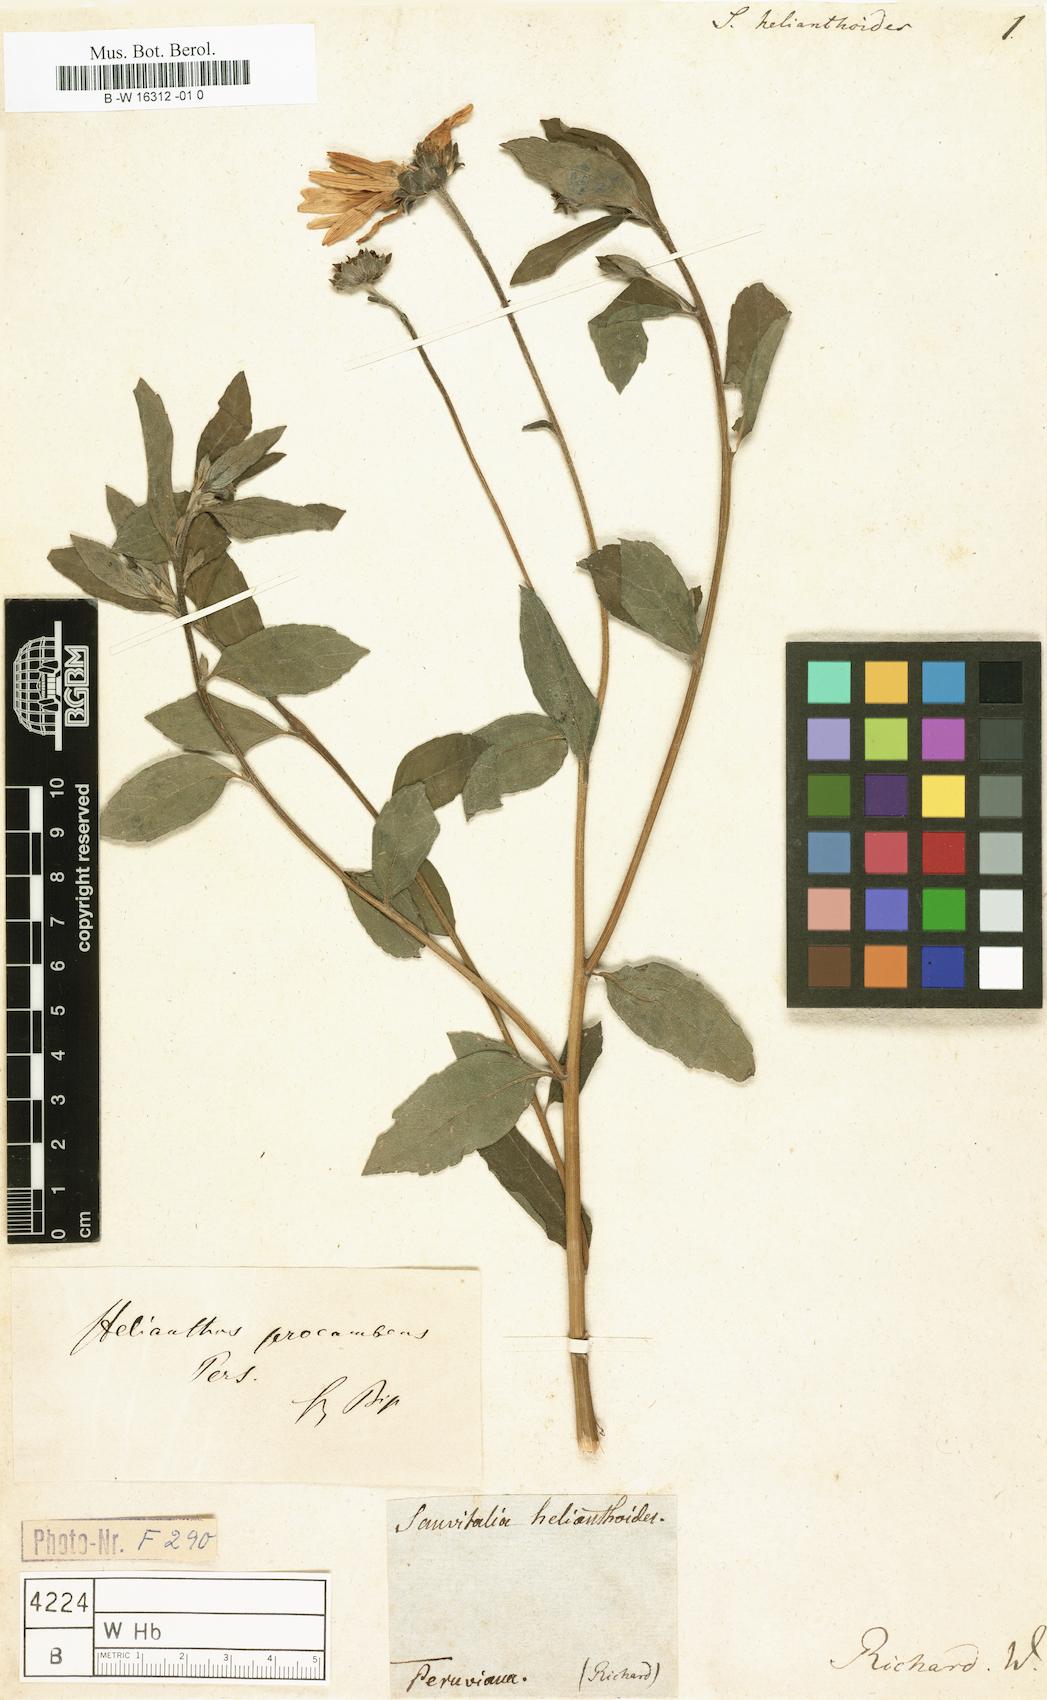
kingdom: Plantae
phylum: Tracheophyta
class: Magnoliopsida
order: Asterales
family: Asteraceae
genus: Aldama
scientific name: Aldama helianthoides
